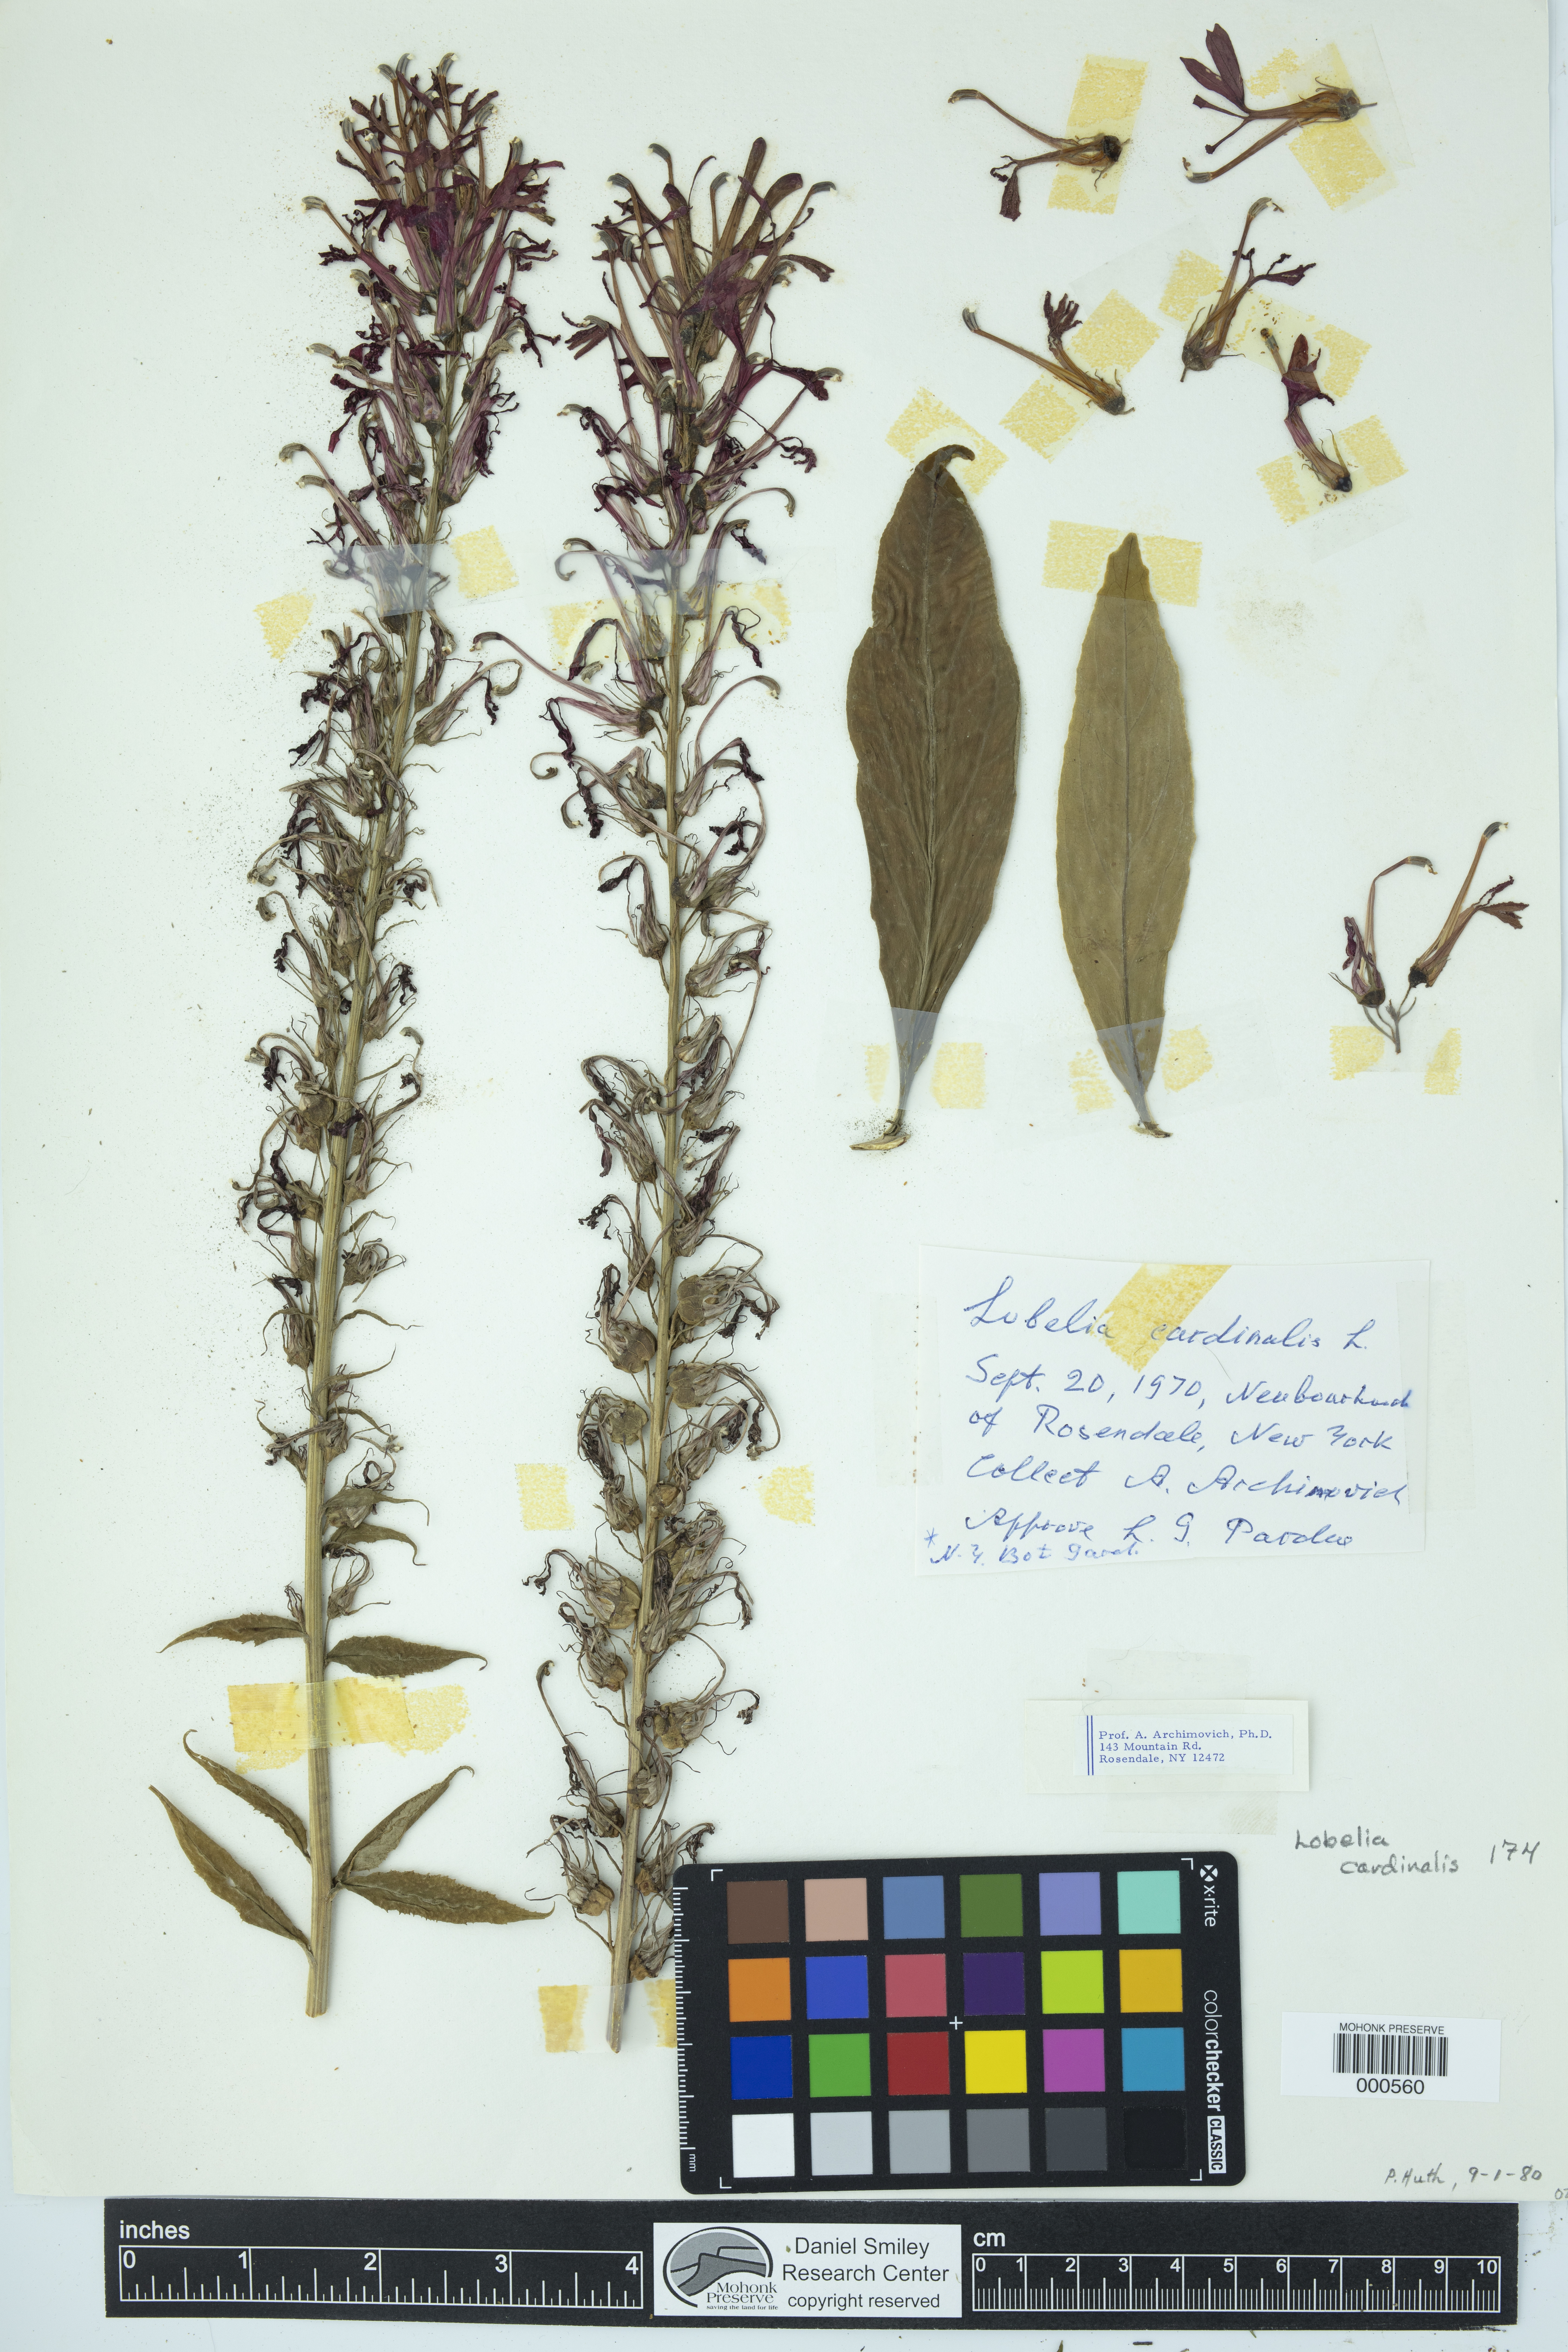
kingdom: Plantae
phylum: Tracheophyta
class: Magnoliopsida
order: Asterales
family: Campanulaceae
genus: Lobelia
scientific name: Lobelia cardinalis
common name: Cardinal flower
